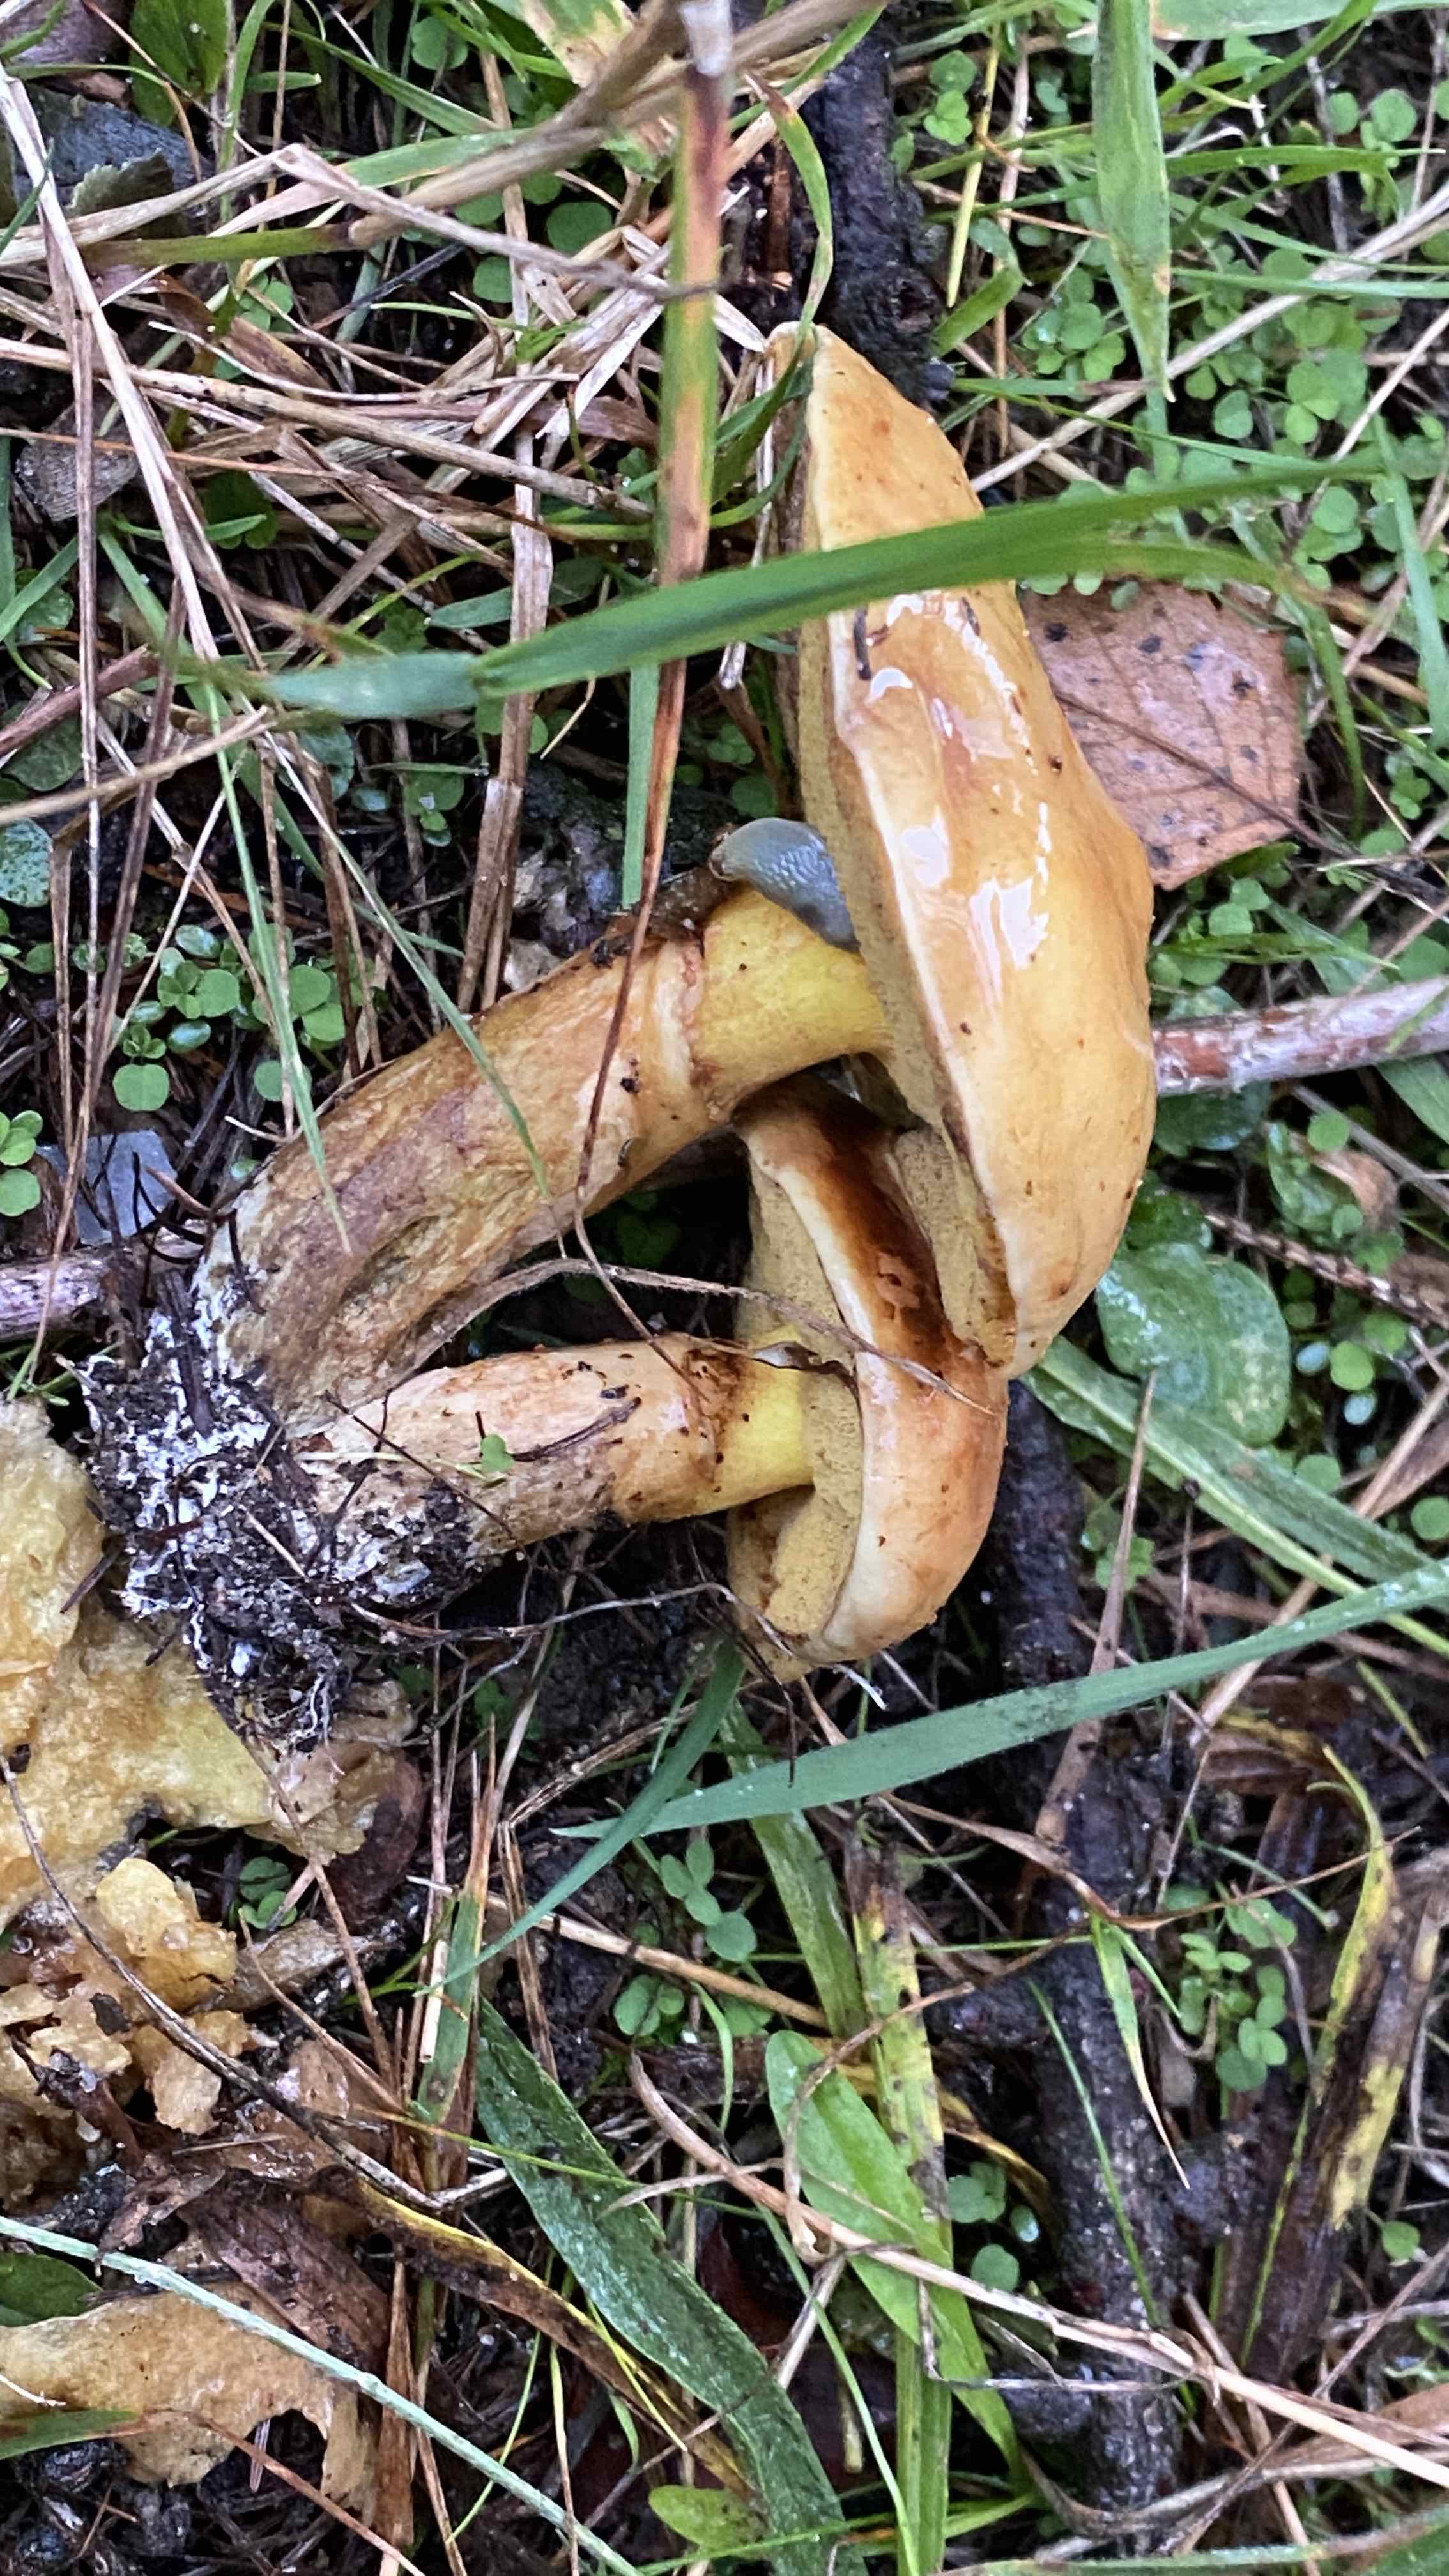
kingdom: Fungi
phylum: Basidiomycota
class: Agaricomycetes
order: Boletales
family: Suillaceae
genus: Suillus
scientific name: Suillus grevillei
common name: lærke-slimrørhat
